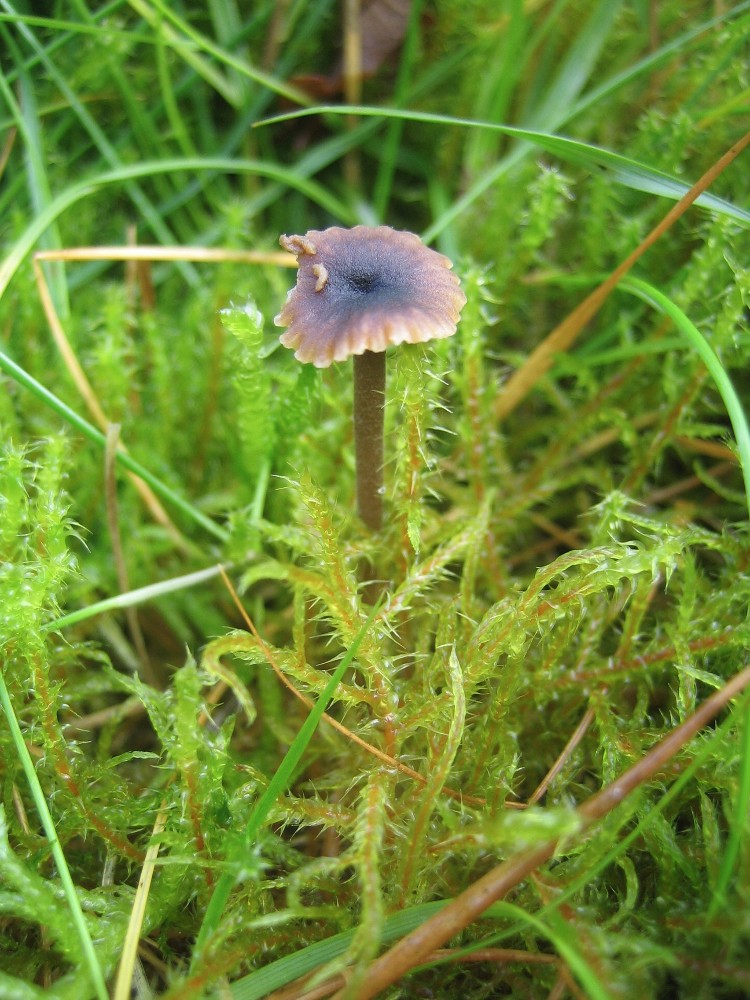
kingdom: Fungi
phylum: Basidiomycota
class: Agaricomycetes
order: Hymenochaetales
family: Rickenellaceae
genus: Rickenella
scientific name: Rickenella swartzii
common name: finstokket mosnavlehat
